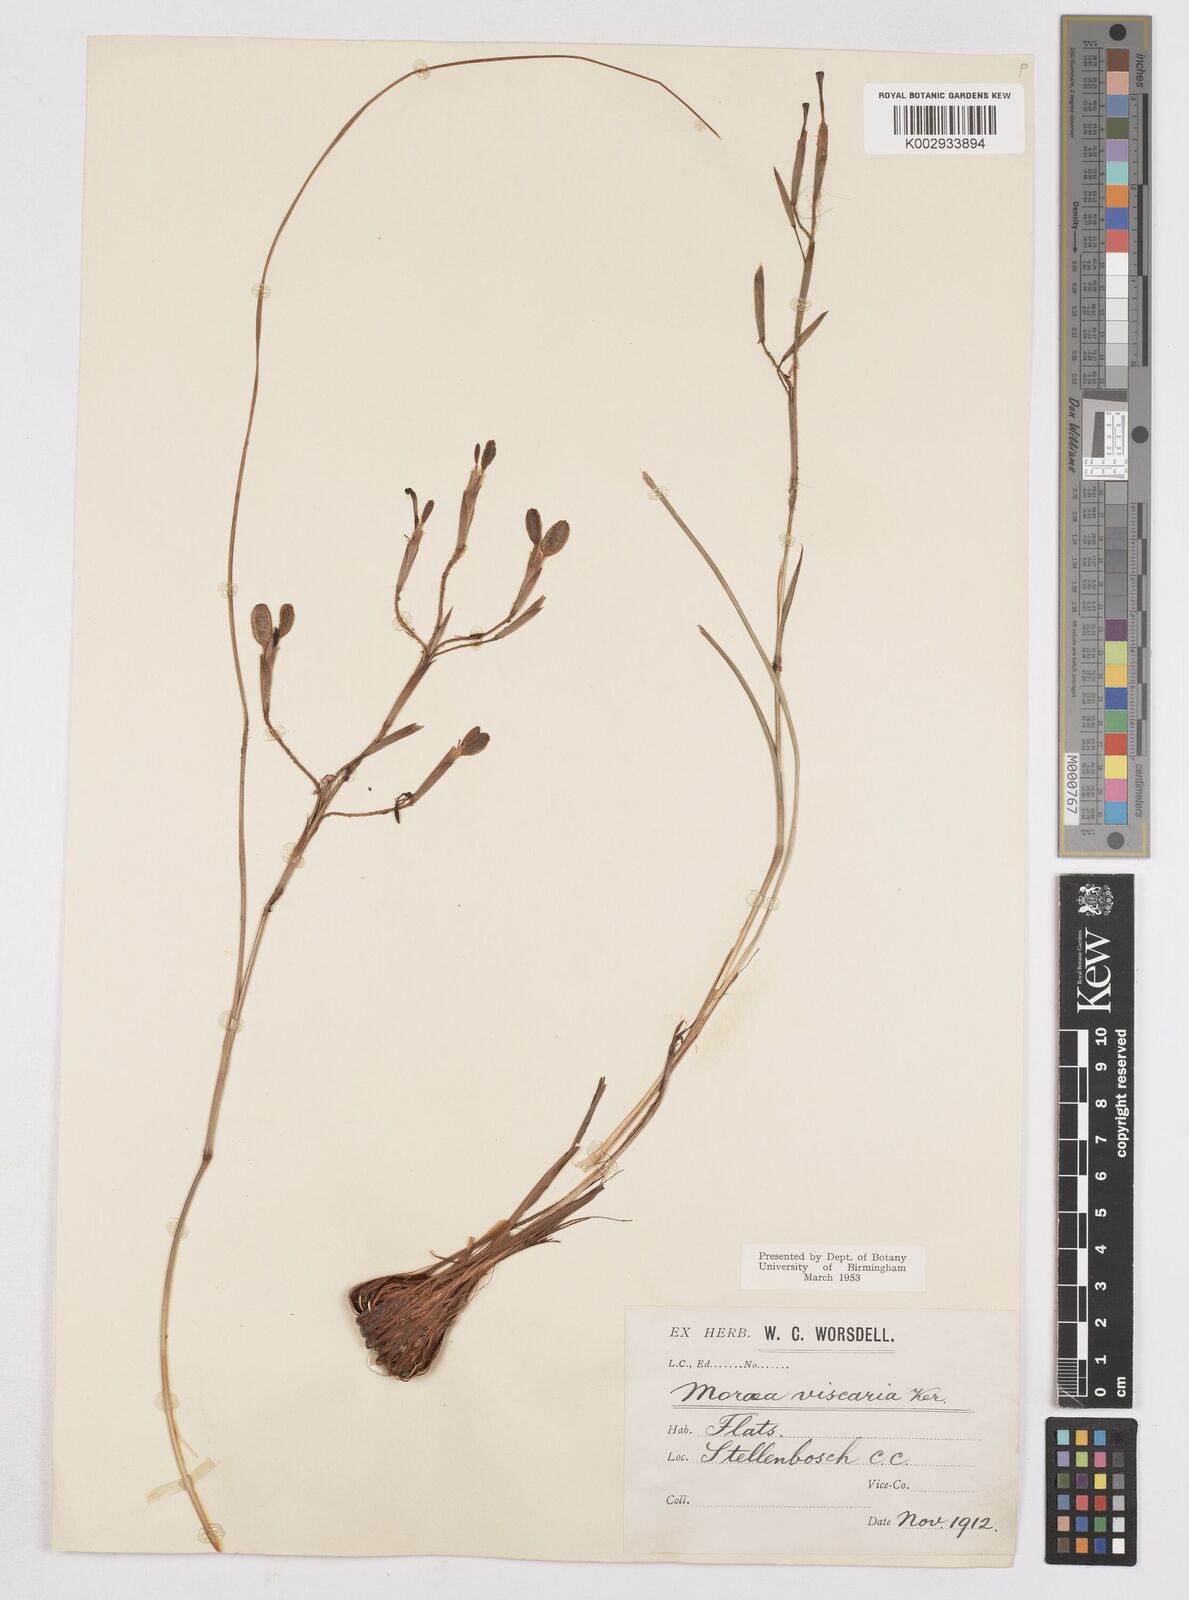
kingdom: Plantae
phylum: Tracheophyta
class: Liliopsida
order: Asparagales
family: Iridaceae
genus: Moraea
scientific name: Moraea viscaria
